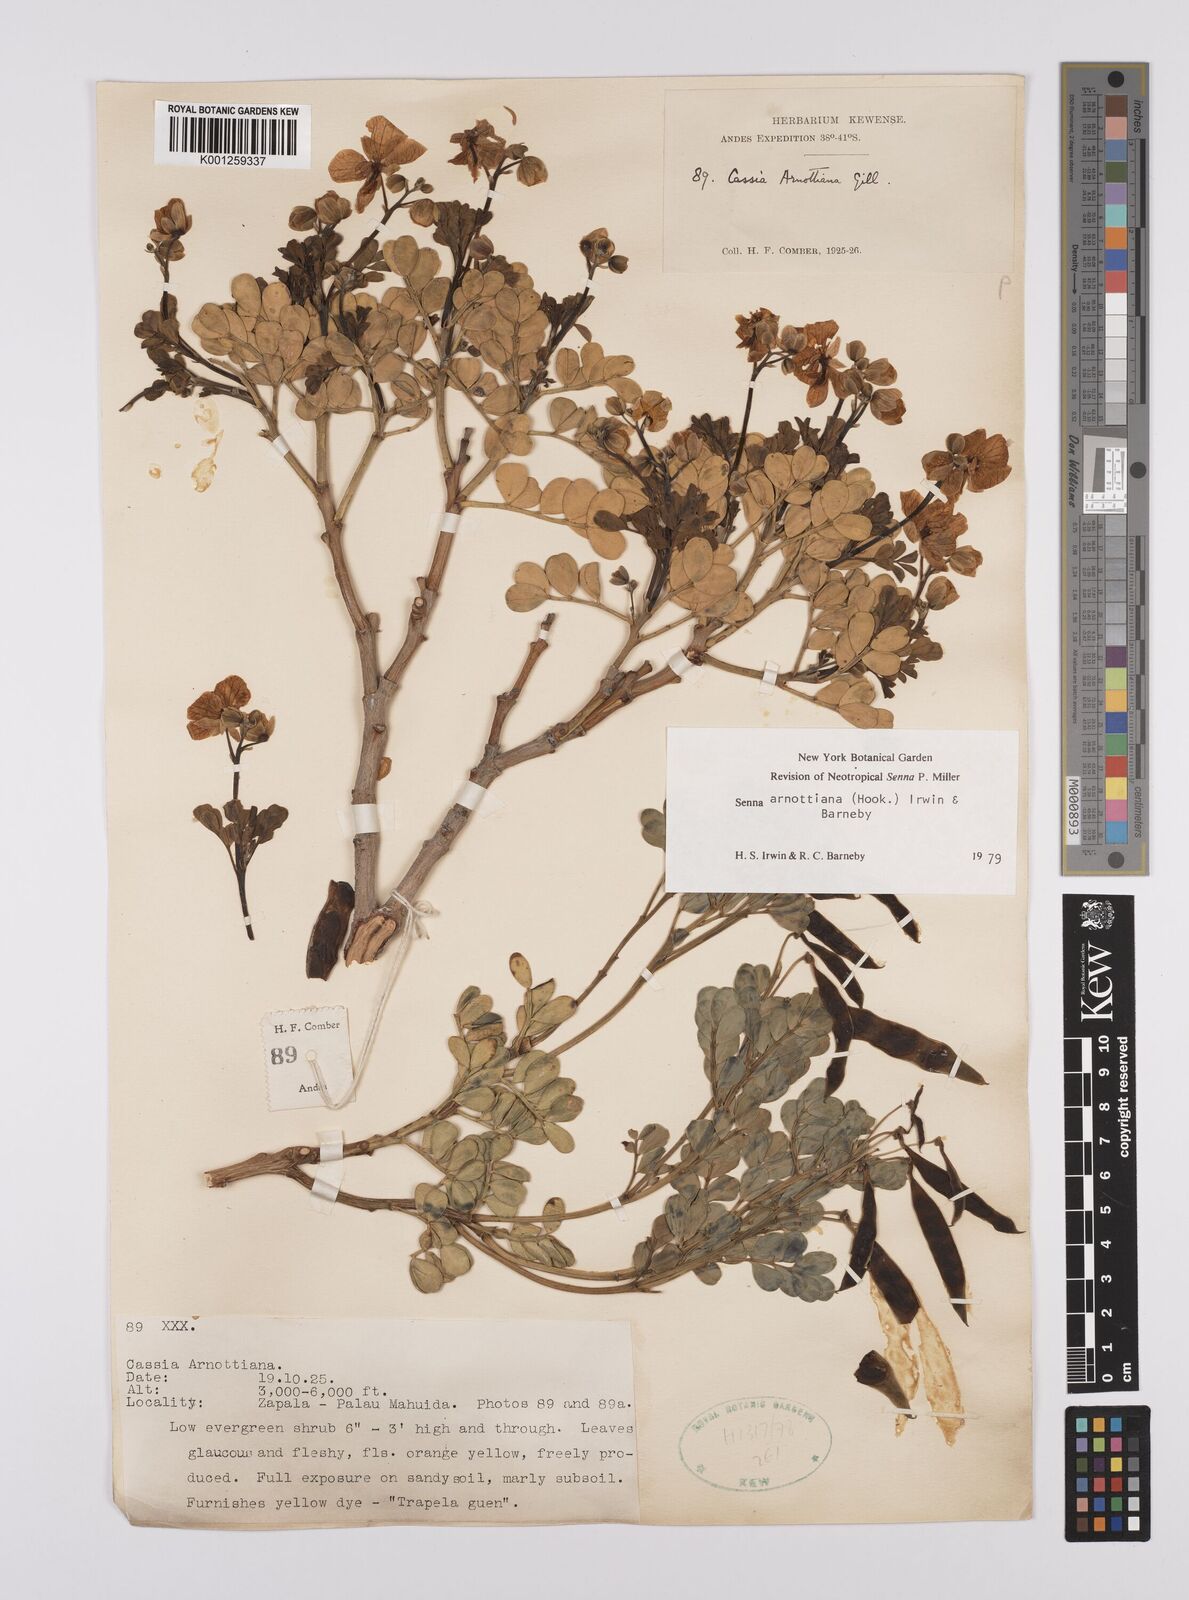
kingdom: Plantae
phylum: Tracheophyta
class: Magnoliopsida
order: Fabales
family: Fabaceae
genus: Senna
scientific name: Senna arnottiana
